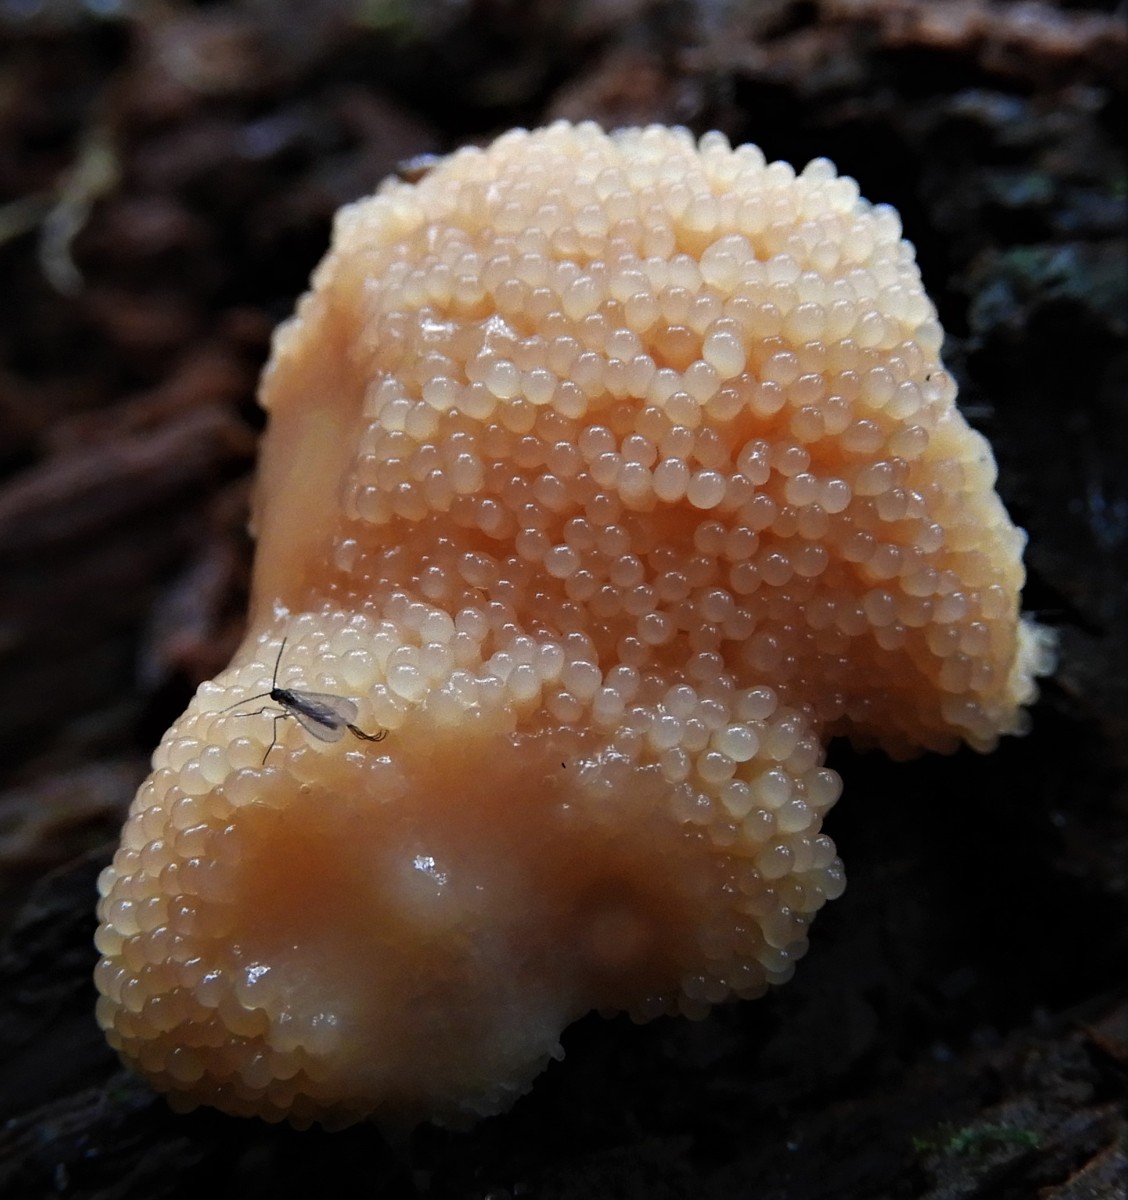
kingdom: Protozoa
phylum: Mycetozoa
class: Myxomycetes
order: Cribrariales
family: Tubiferaceae
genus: Tubifera
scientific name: Tubifera ferruginosa
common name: kanel-støvrør
